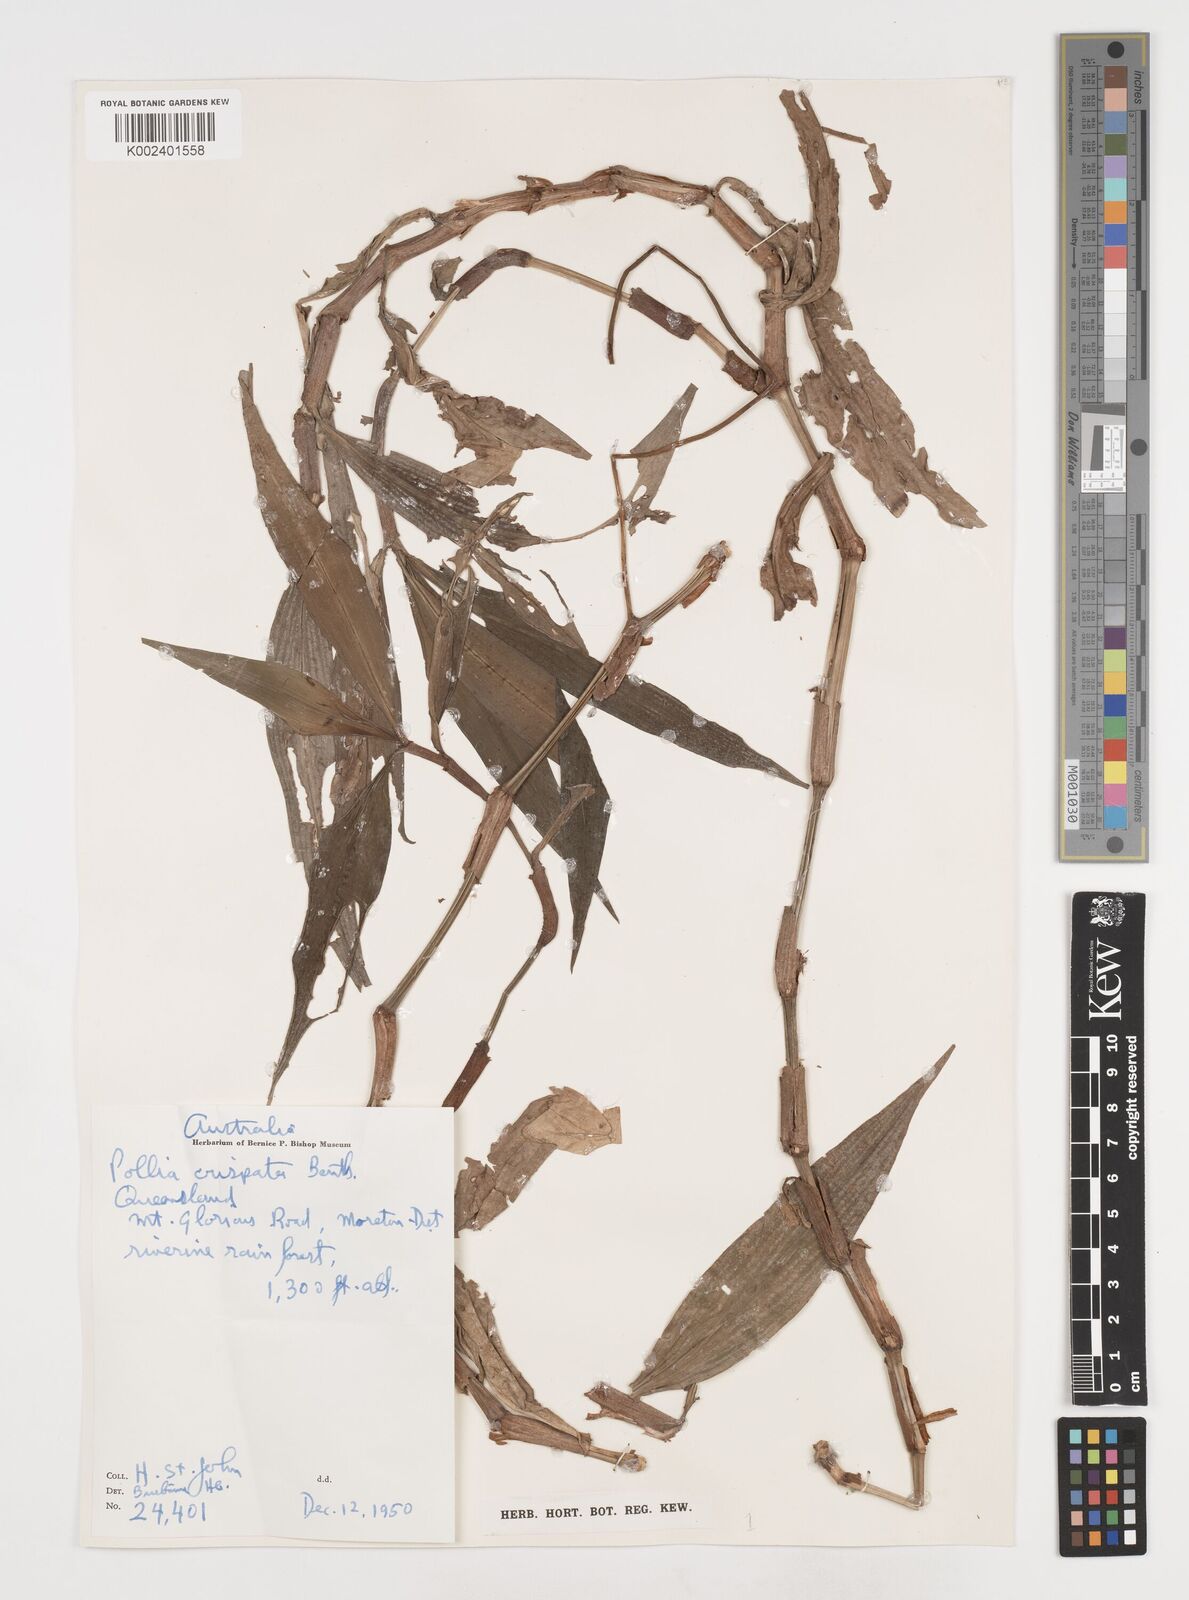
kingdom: Plantae
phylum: Tracheophyta
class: Liliopsida
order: Commelinales
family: Commelinaceae
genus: Pollia
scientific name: Pollia crispata
